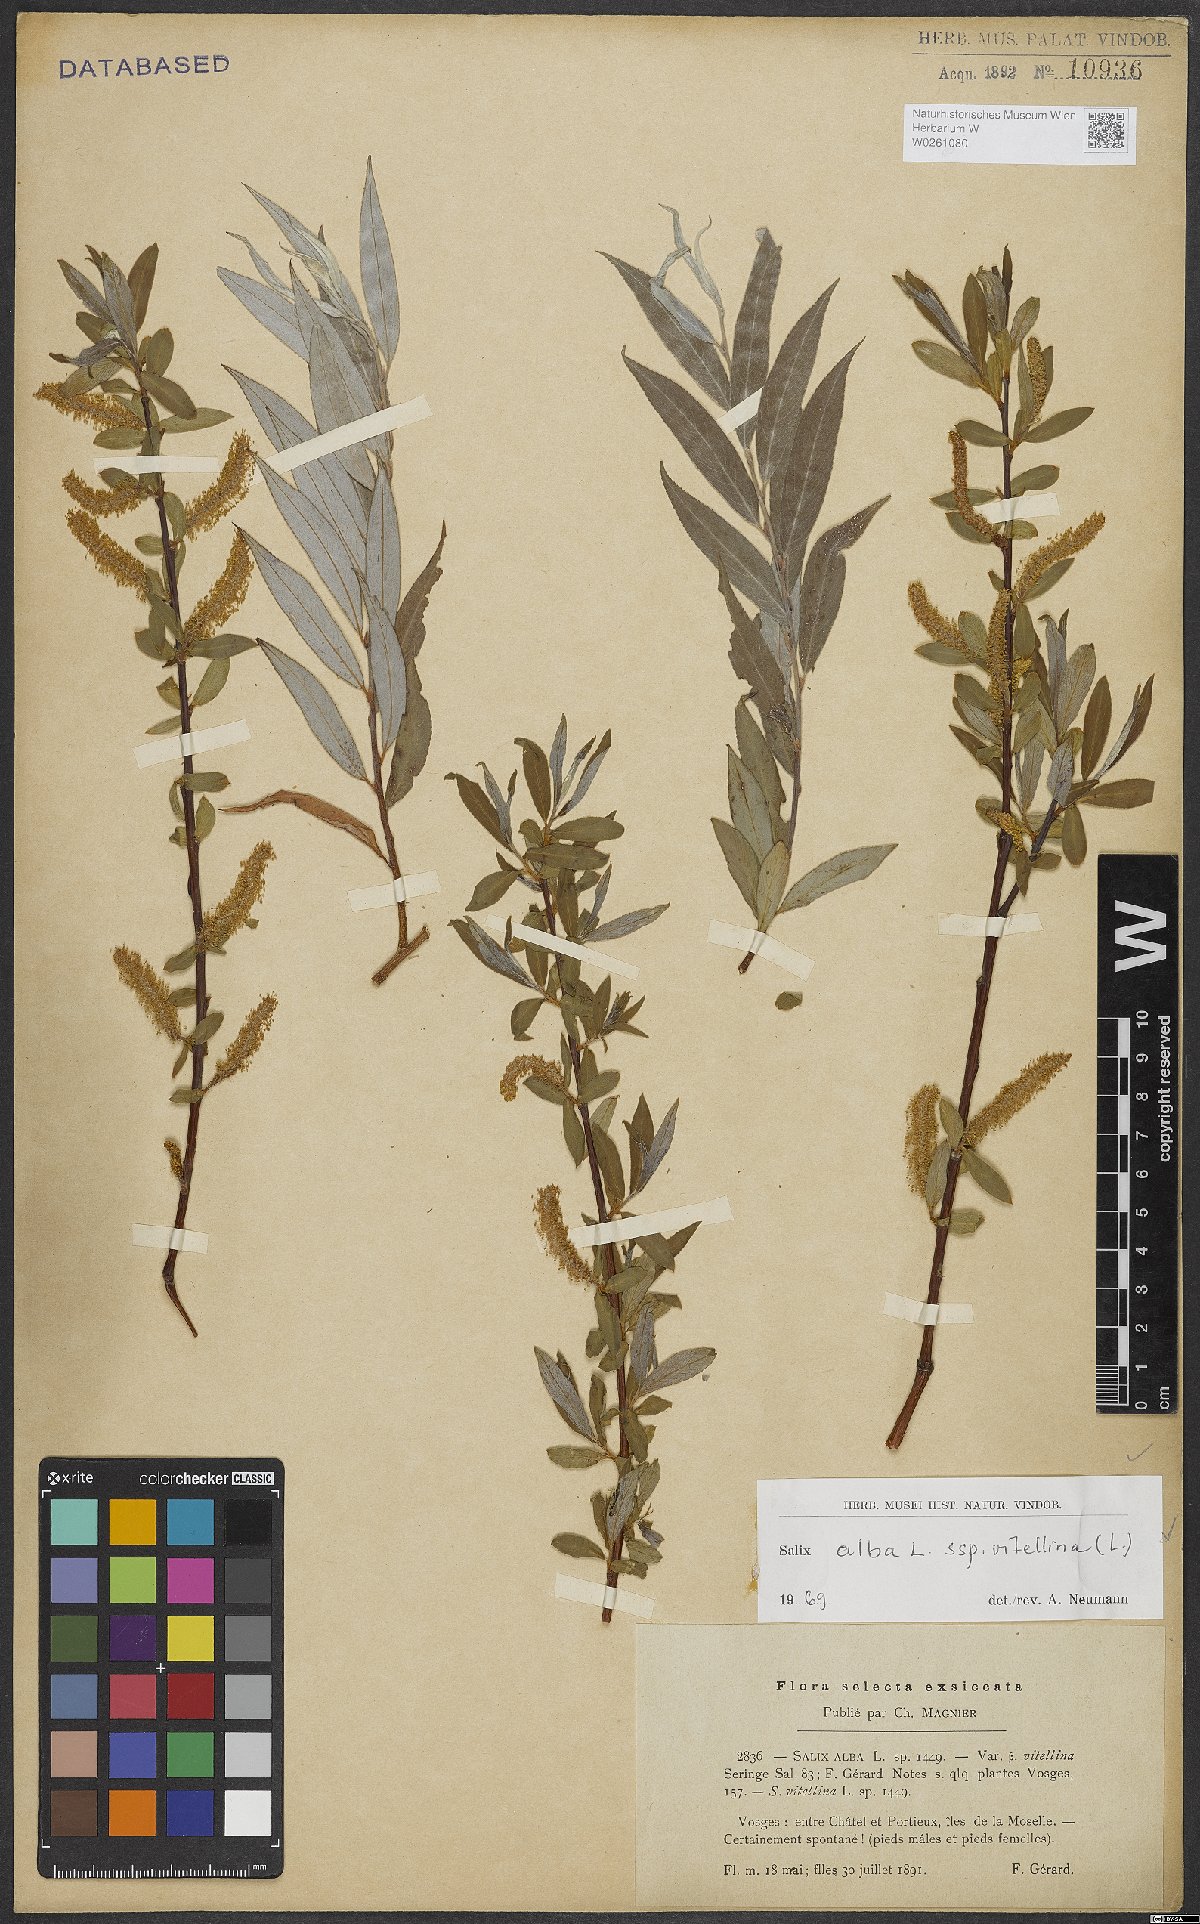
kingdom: Plantae
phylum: Tracheophyta
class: Magnoliopsida
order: Malpighiales
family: Salicaceae
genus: Salix
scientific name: Salix alba
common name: White willow
